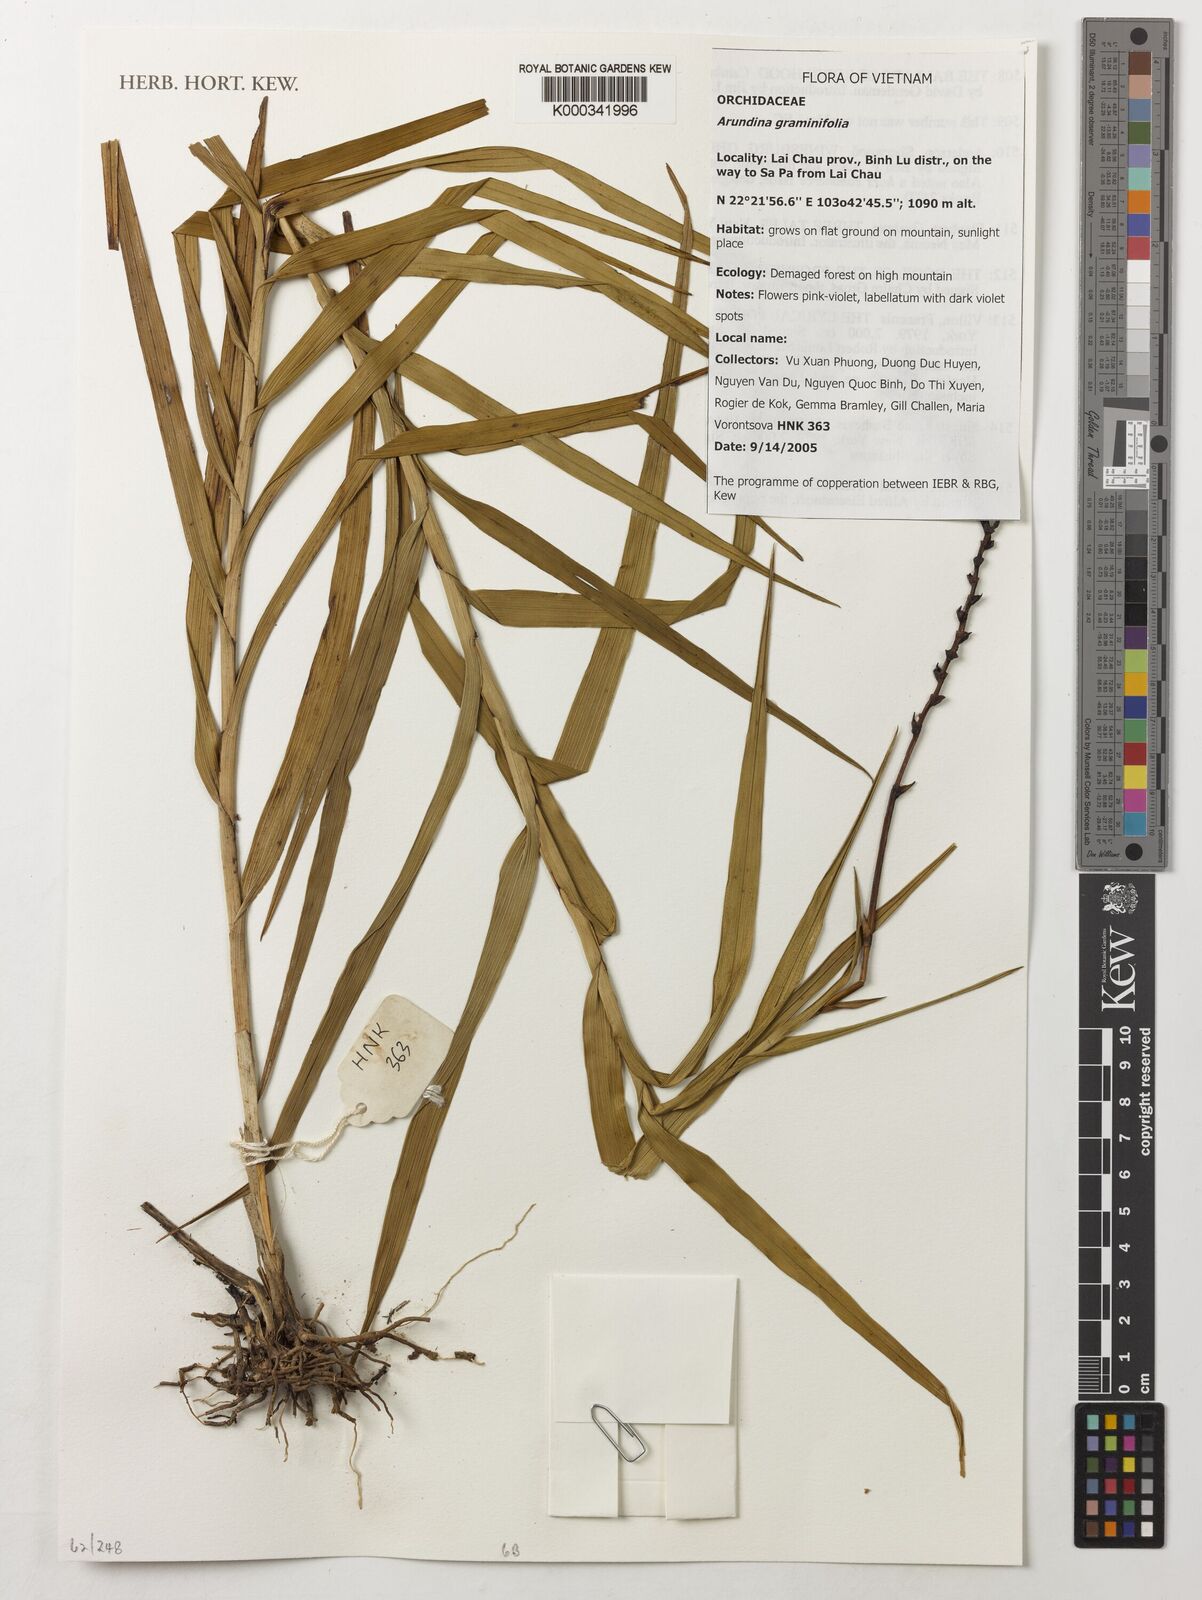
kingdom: Plantae
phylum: Tracheophyta
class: Liliopsida
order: Asparagales
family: Orchidaceae
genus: Arundina
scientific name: Arundina graminifolia
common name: Bamboo orchid
